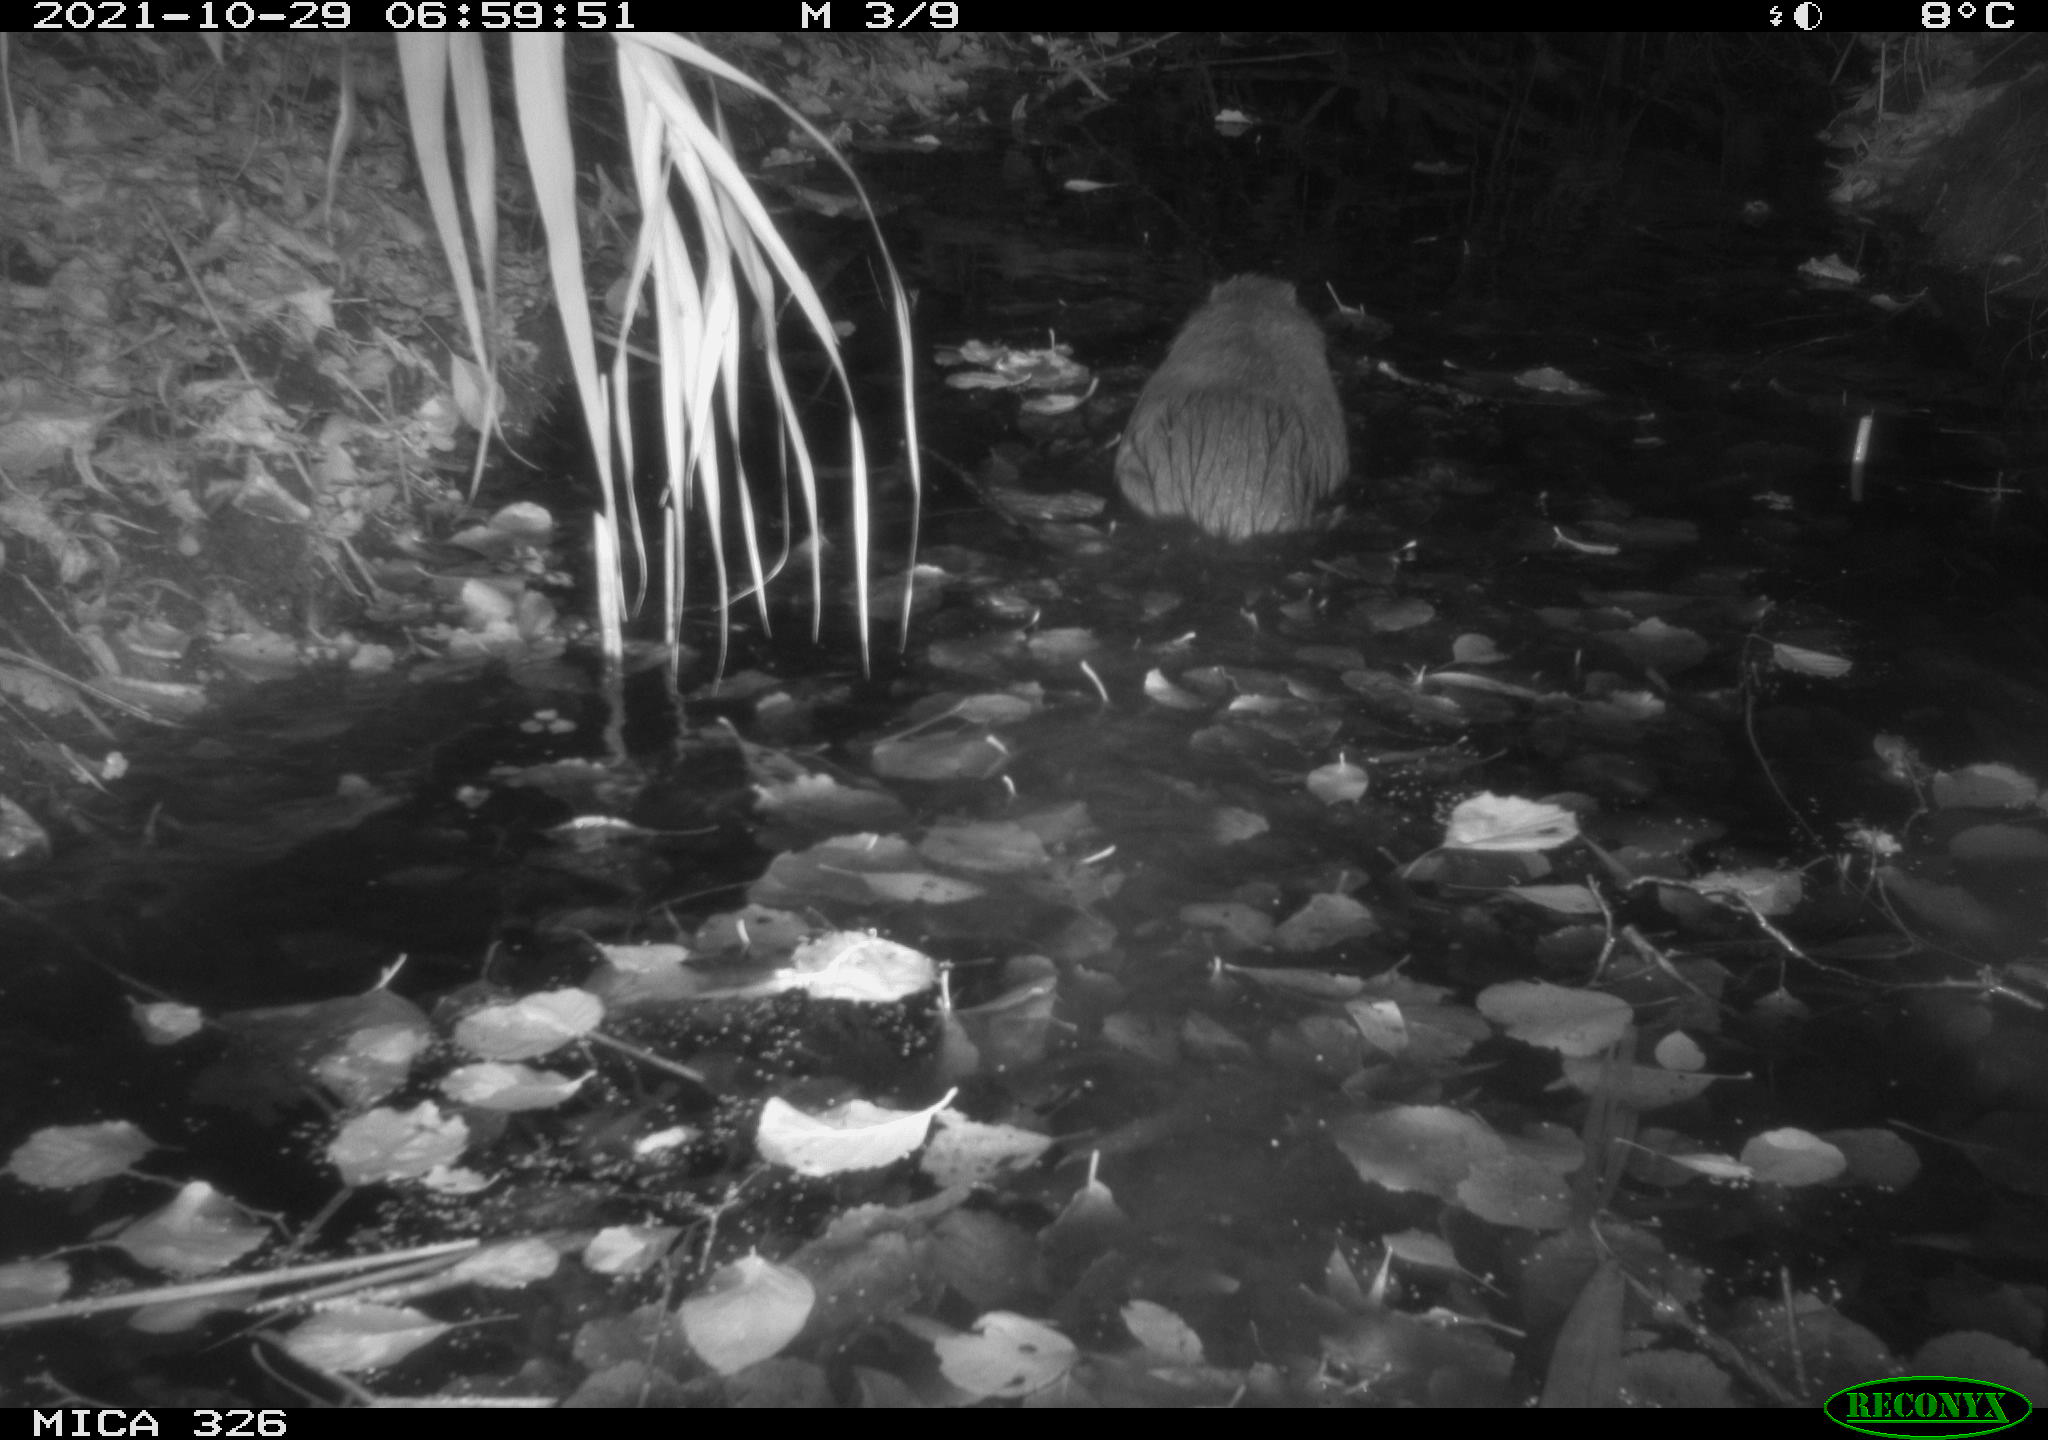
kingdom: Animalia
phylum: Chordata
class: Mammalia
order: Rodentia
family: Myocastoridae
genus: Myocastor
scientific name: Myocastor coypus
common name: Coypu
